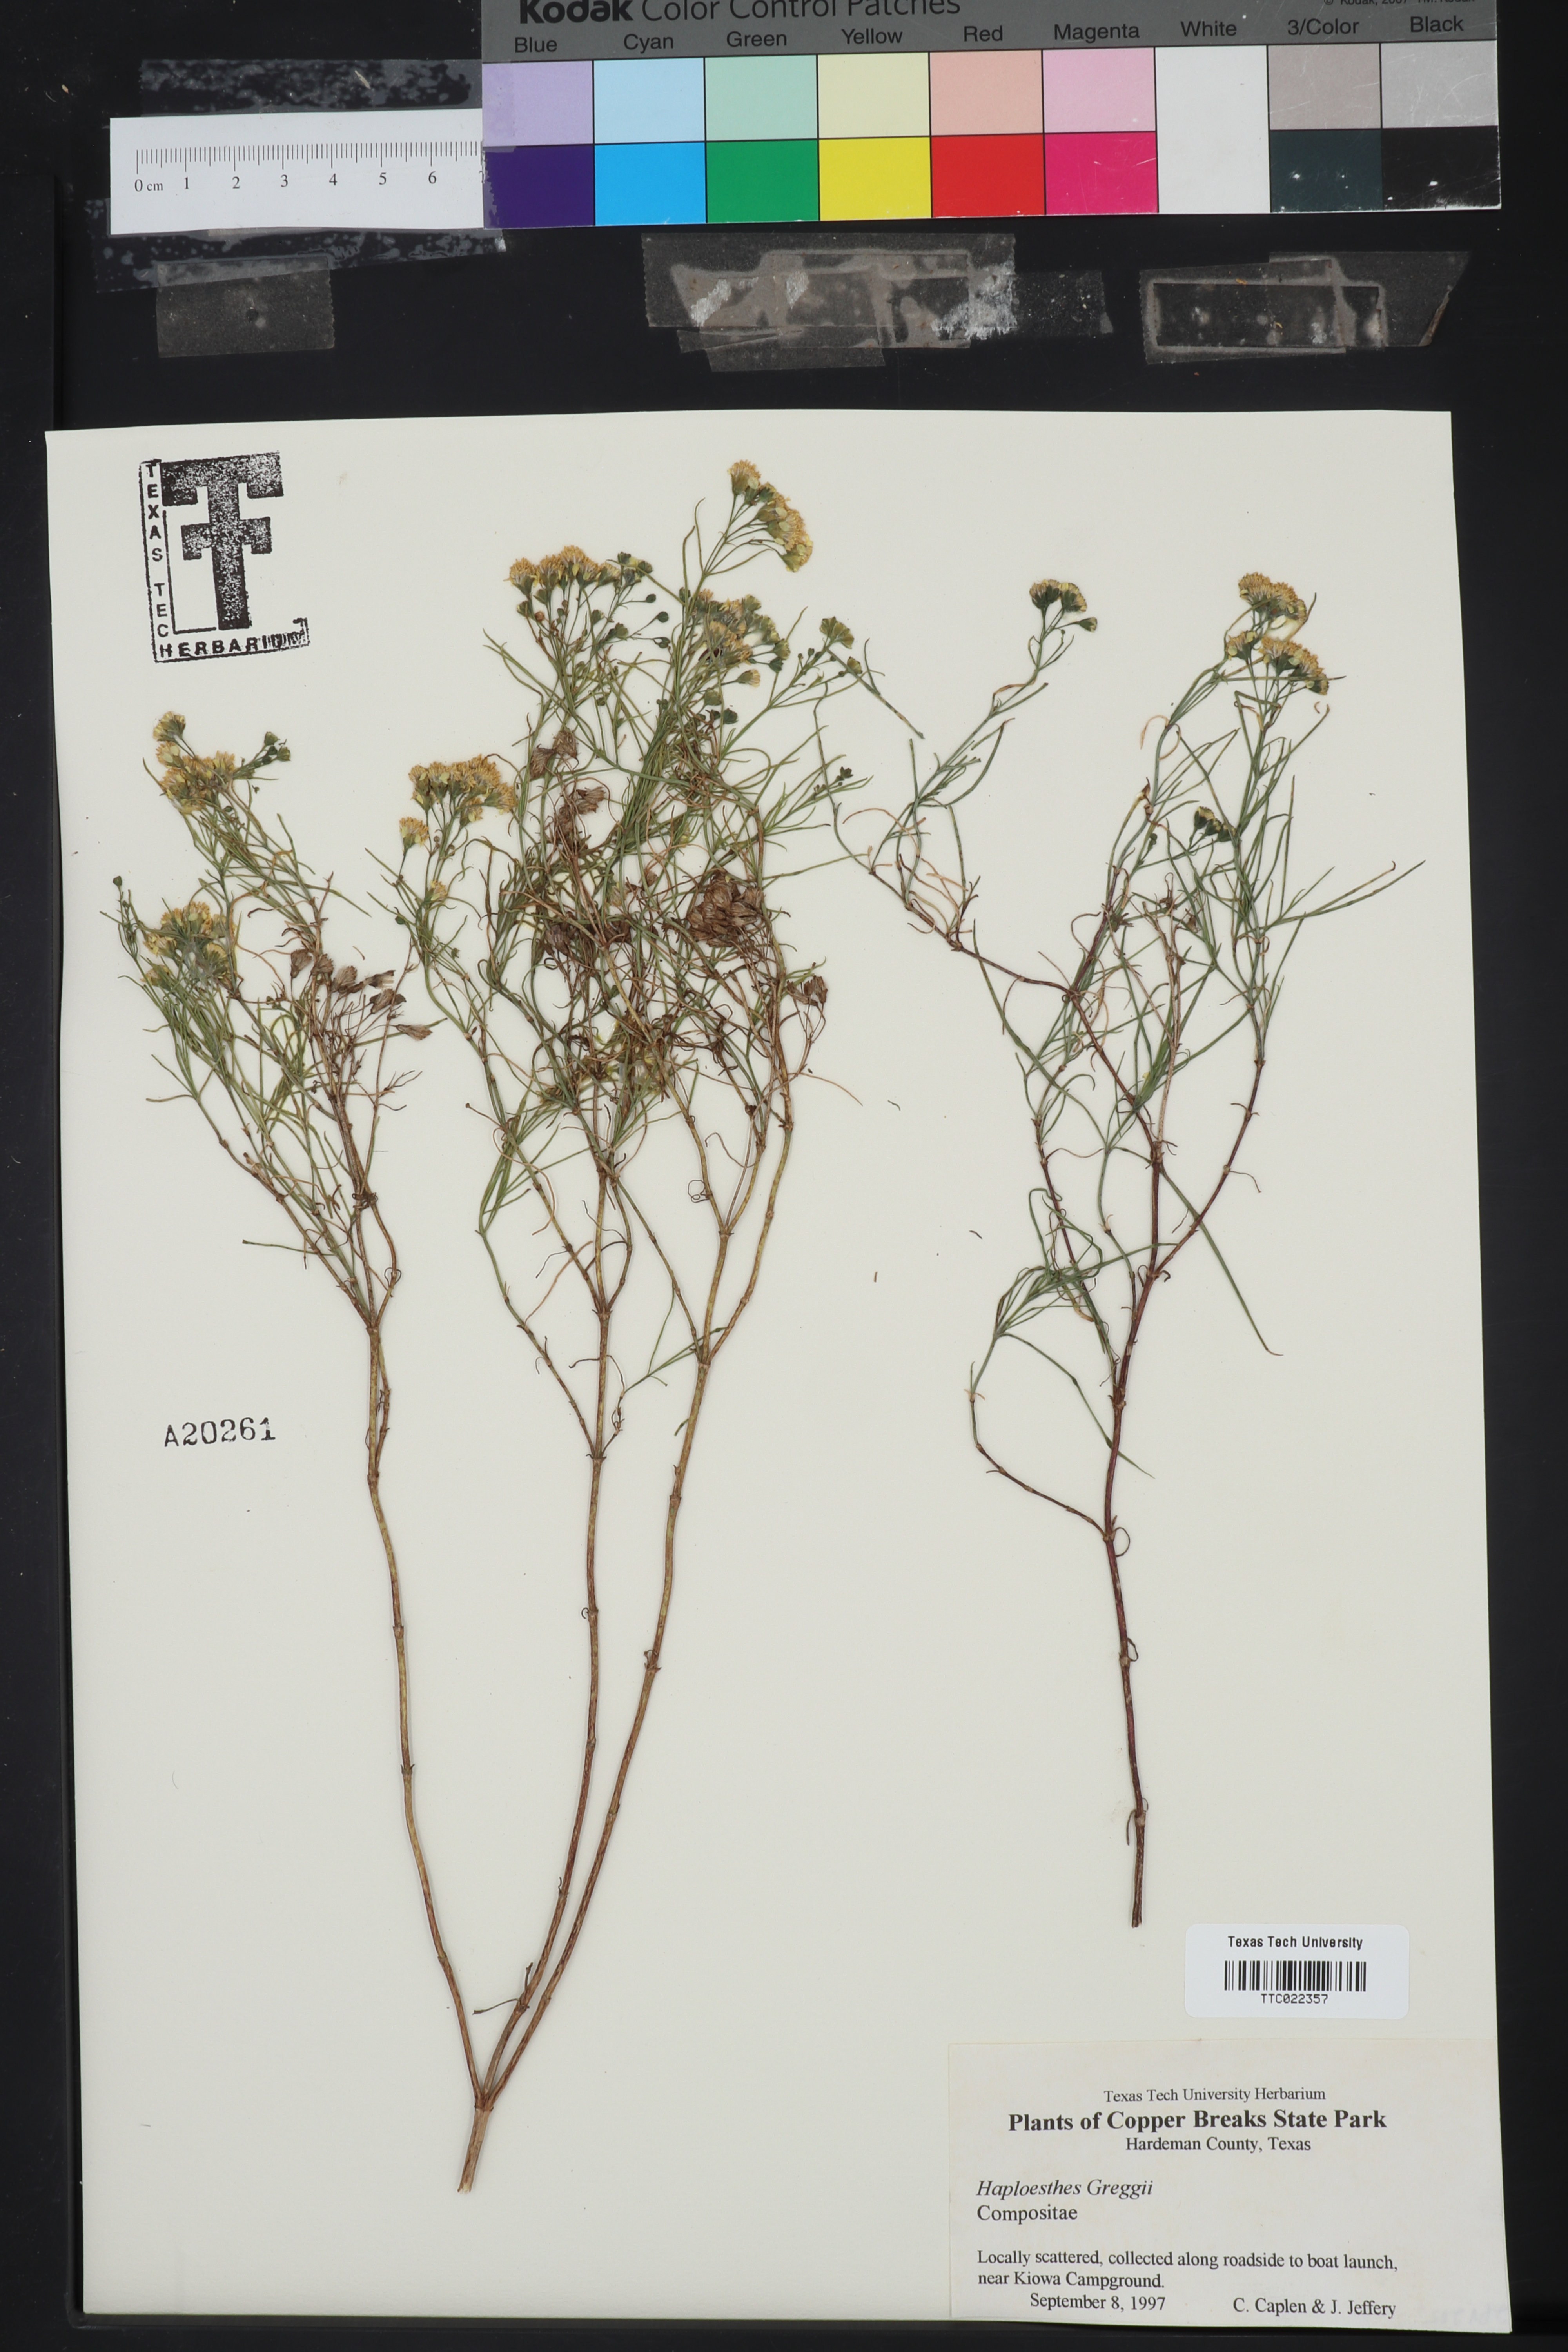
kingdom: Plantae
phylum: Tracheophyta
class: Magnoliopsida
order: Asterales
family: Asteraceae
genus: Haploesthes
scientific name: Haploesthes greggii
